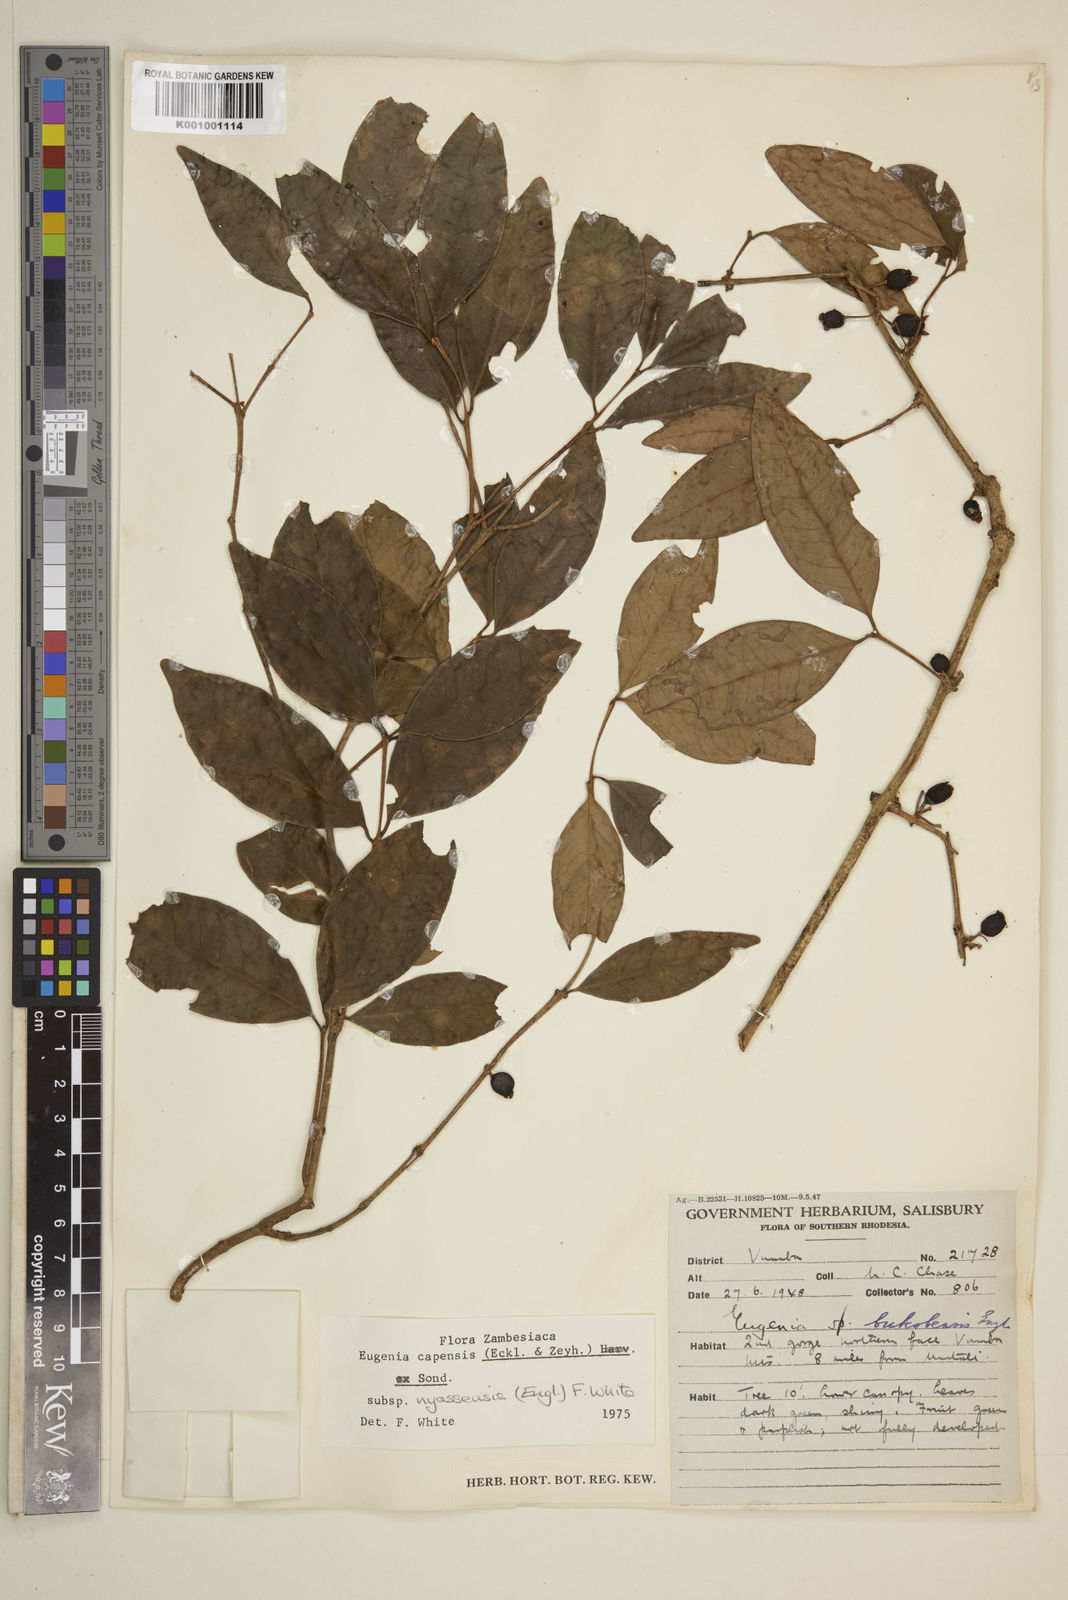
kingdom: Plantae
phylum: Tracheophyta
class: Magnoliopsida
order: Myrtales
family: Myrtaceae
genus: Eugenia
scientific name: Eugenia capensis
